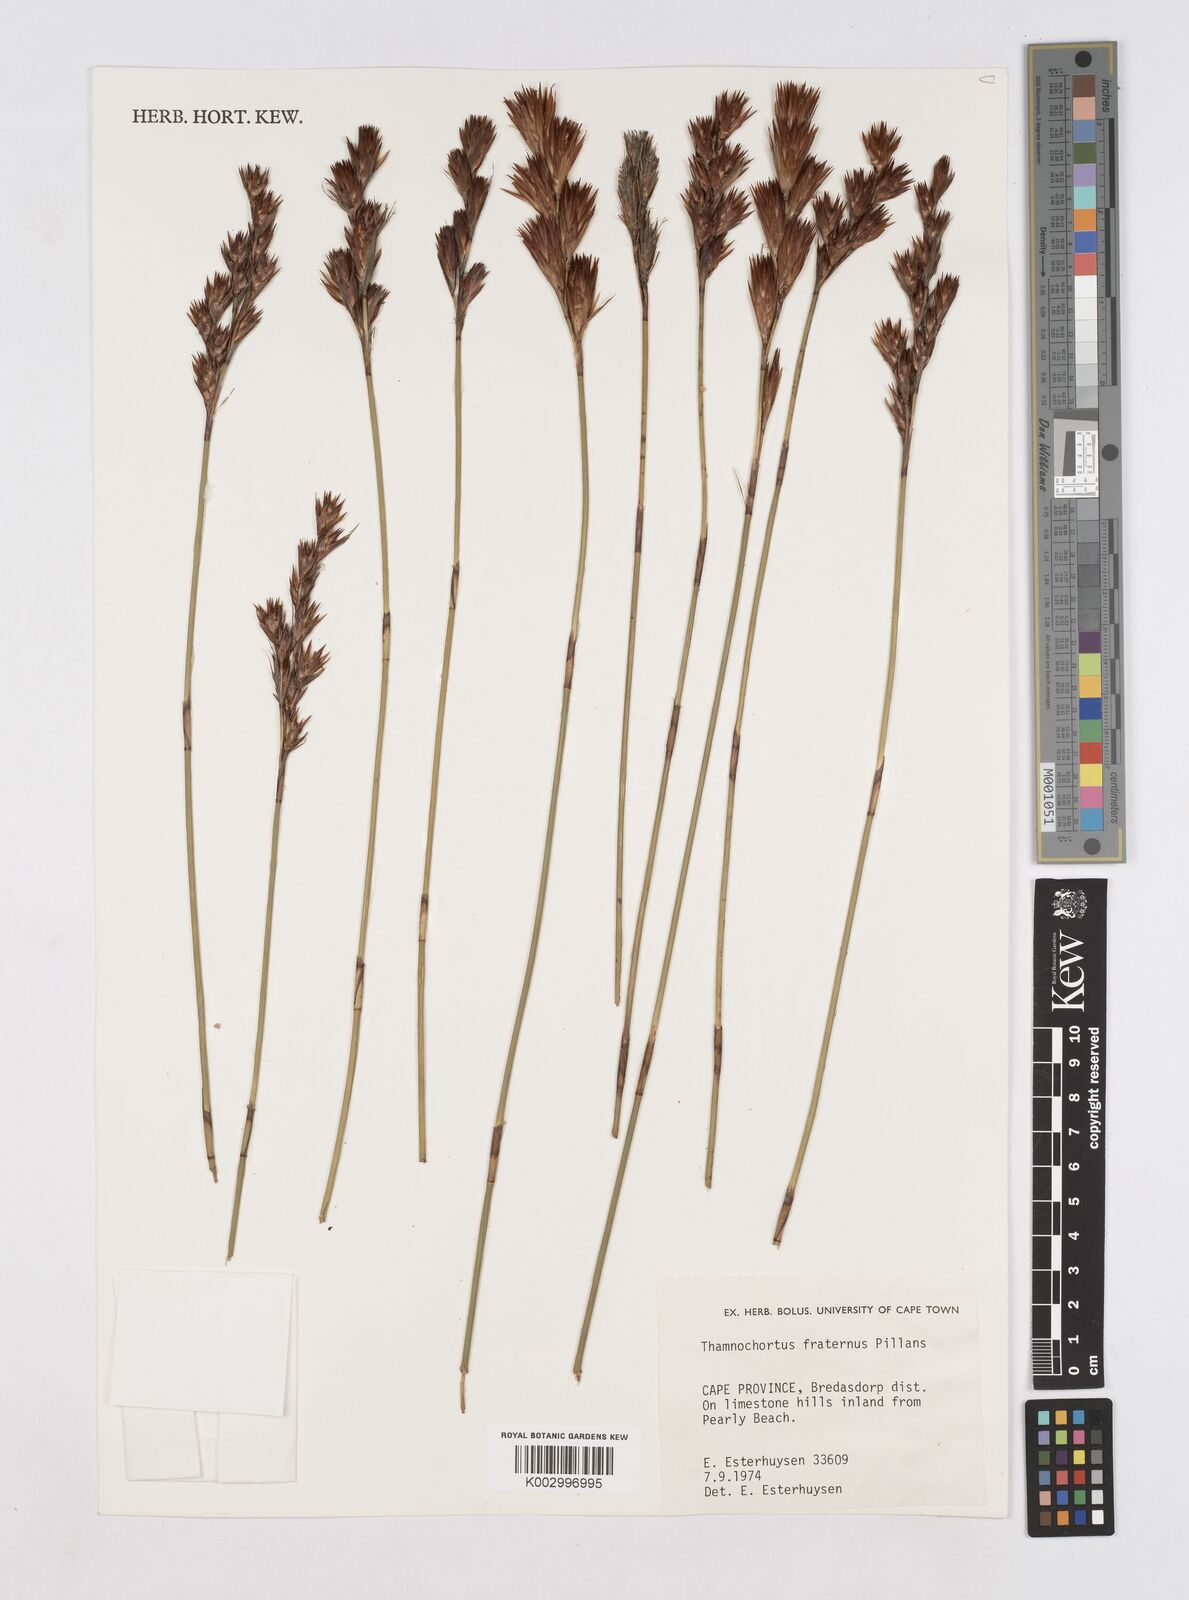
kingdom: Plantae
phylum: Tracheophyta
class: Liliopsida
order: Poales
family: Restionaceae
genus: Thamnochortus
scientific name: Thamnochortus fraternus
